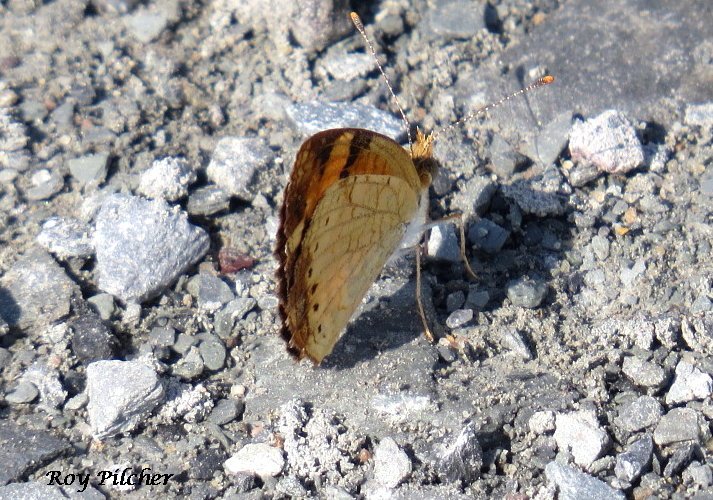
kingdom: Animalia
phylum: Arthropoda
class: Insecta
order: Lepidoptera
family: Nymphalidae
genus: Phyciodes
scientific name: Phyciodes tharos
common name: Northern Crescent
